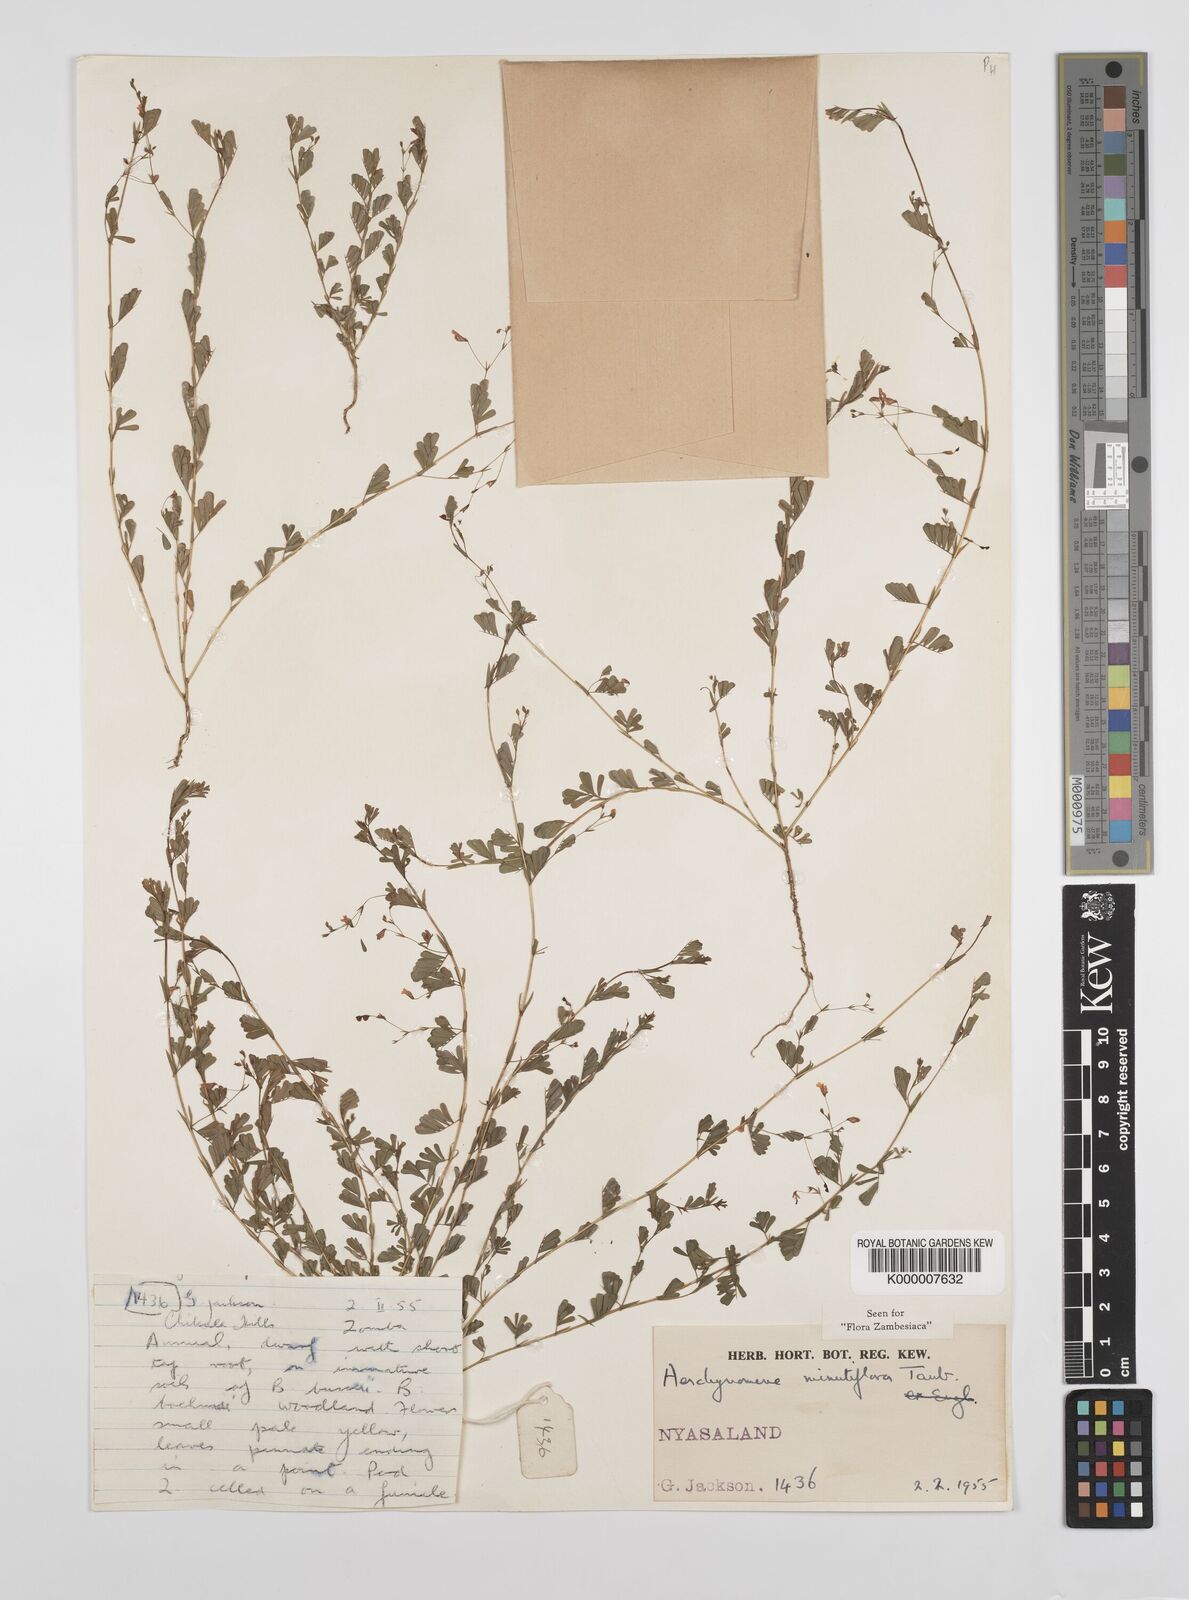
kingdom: Plantae
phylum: Tracheophyta
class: Magnoliopsida
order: Fabales
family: Fabaceae
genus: Aeschynomene
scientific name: Aeschynomene minutiflora
